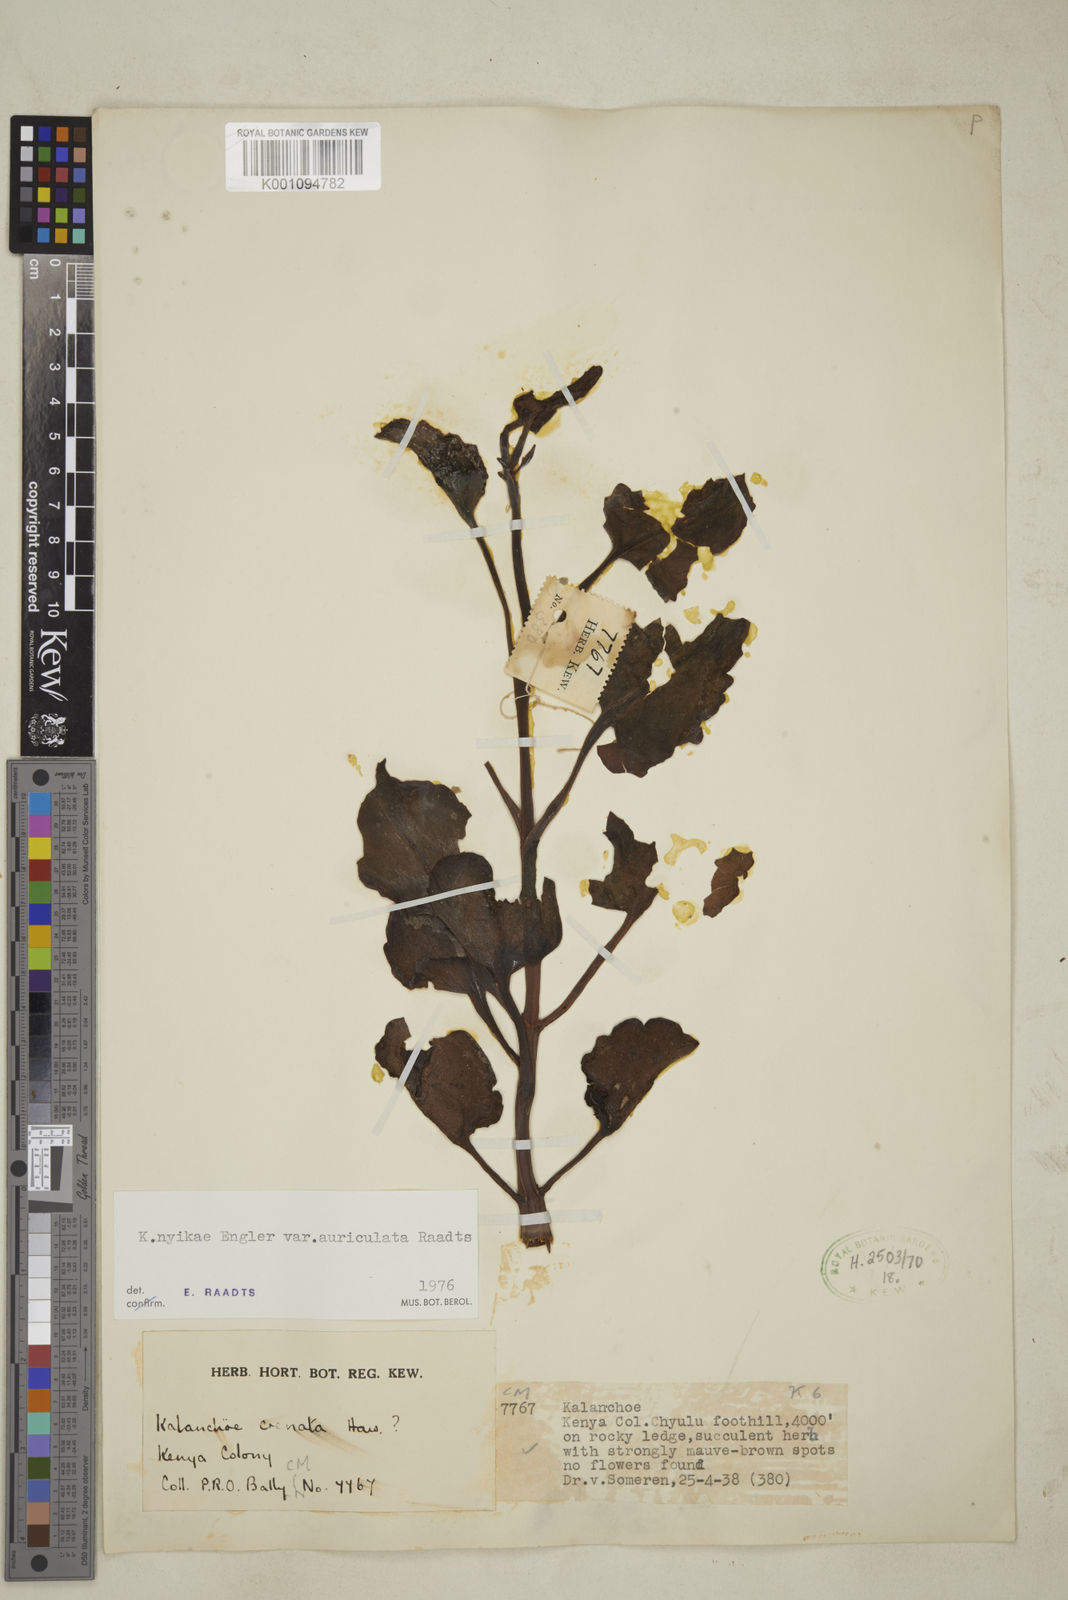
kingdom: Plantae
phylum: Tracheophyta
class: Magnoliopsida
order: Saxifragales
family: Crassulaceae
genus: Kalanchoe
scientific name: Kalanchoe nyikae
